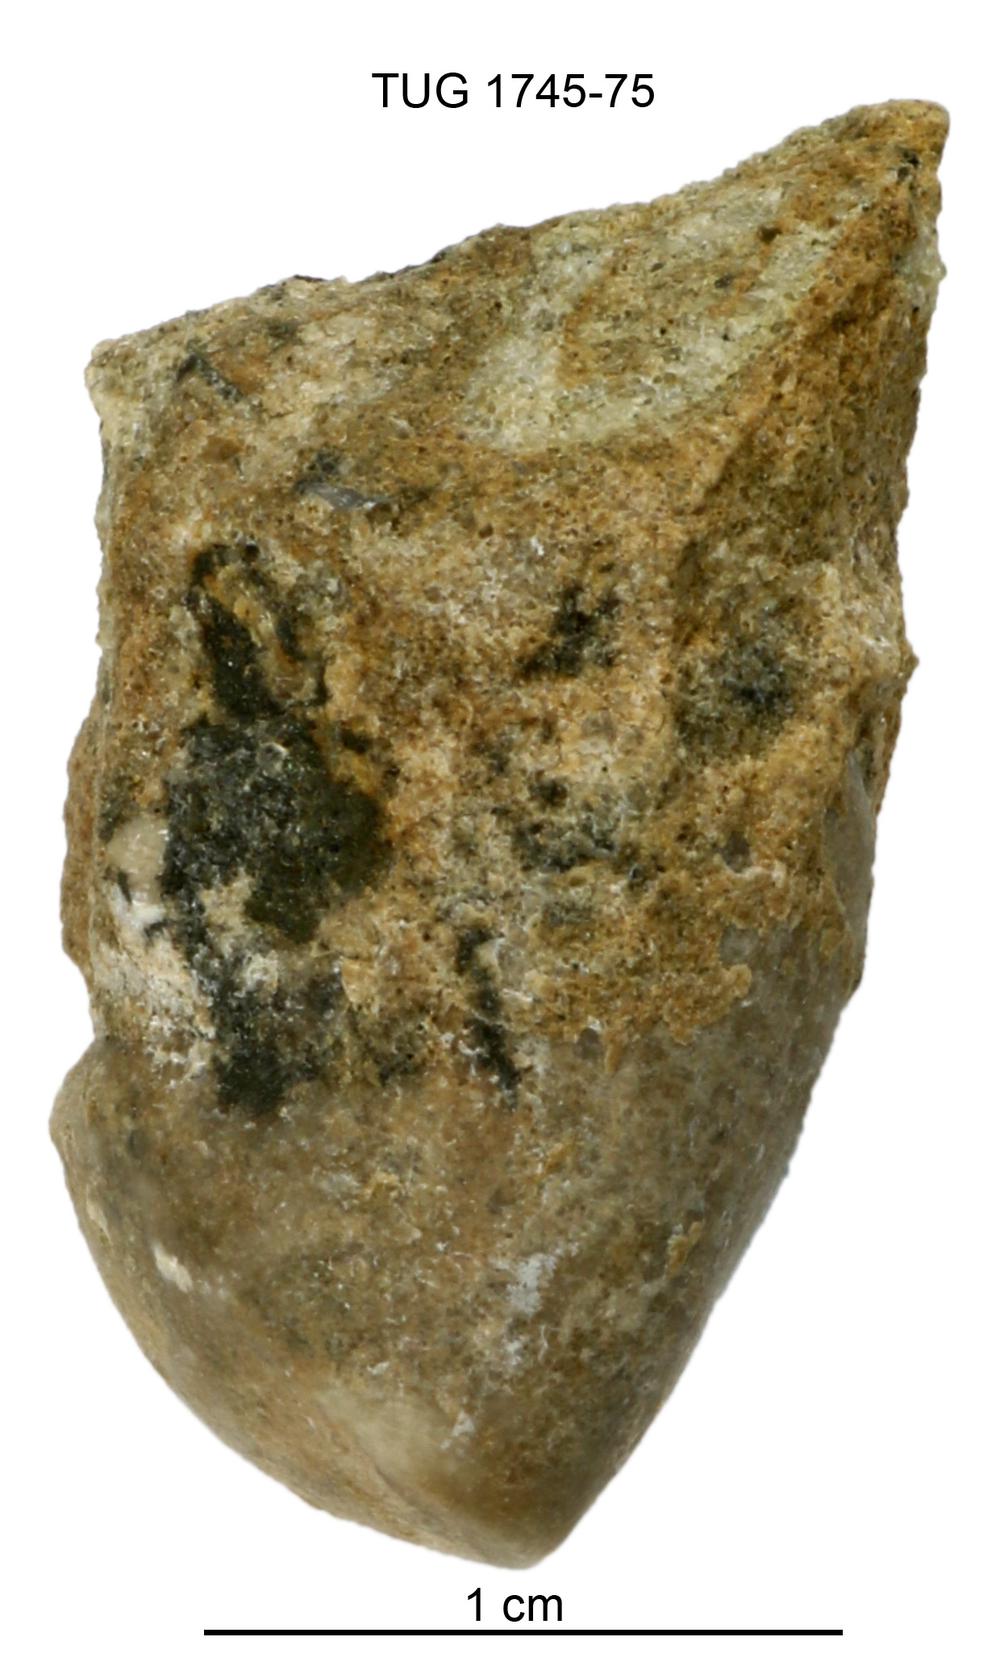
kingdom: Animalia
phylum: Mollusca
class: Cephalopoda
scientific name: Cephalopoda
